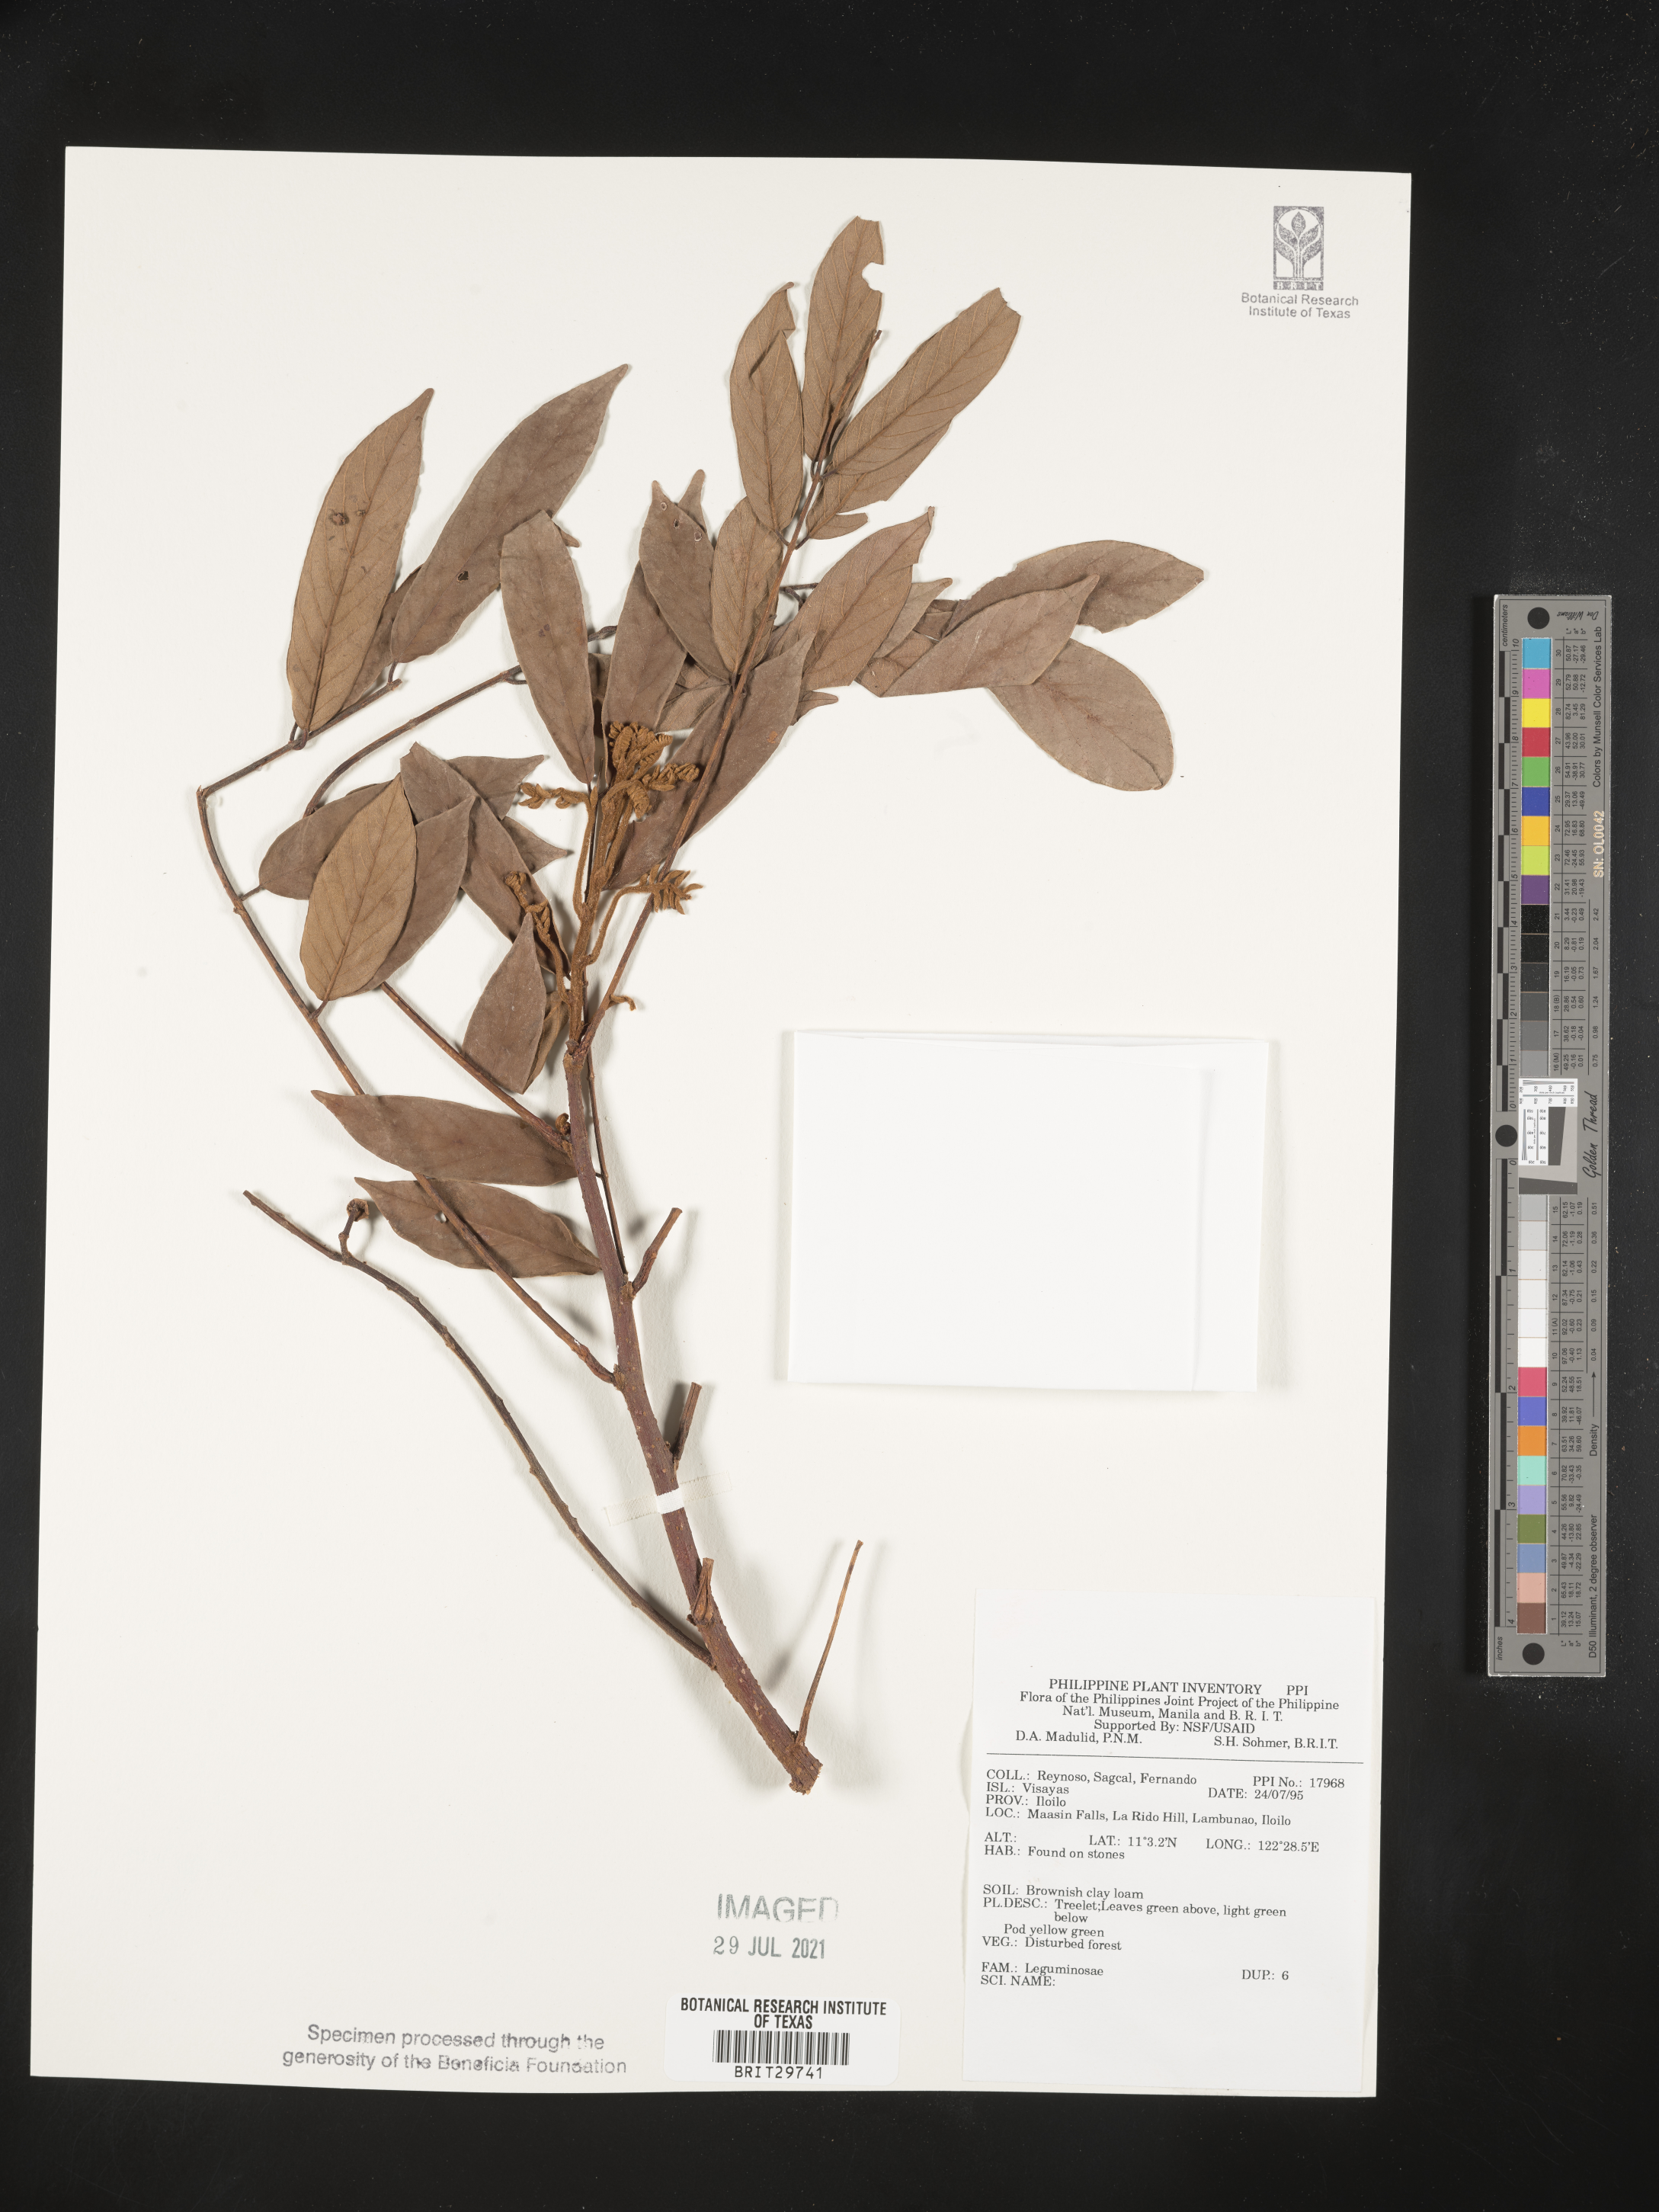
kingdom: Plantae
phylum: Tracheophyta
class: Magnoliopsida
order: Fabales
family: Fabaceae
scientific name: Fabaceae
